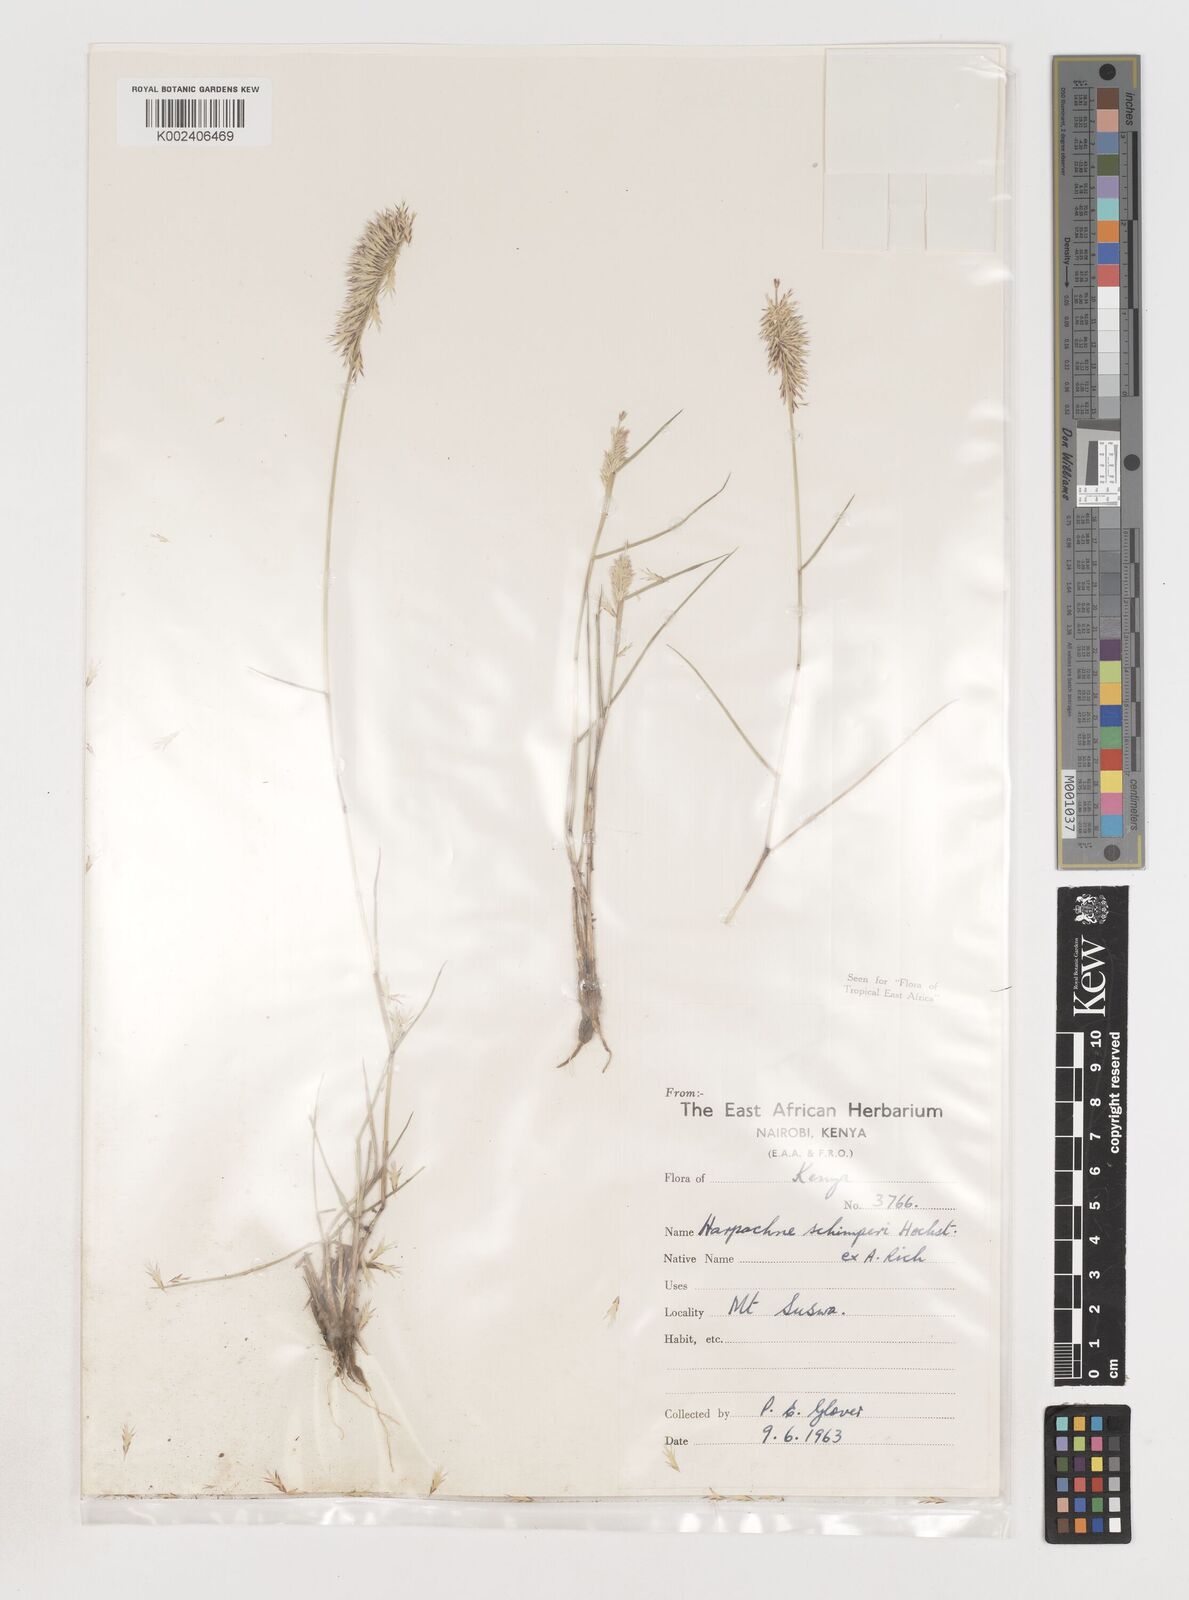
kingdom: Plantae
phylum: Tracheophyta
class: Liliopsida
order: Poales
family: Poaceae
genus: Harpachne
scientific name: Harpachne schimperi
